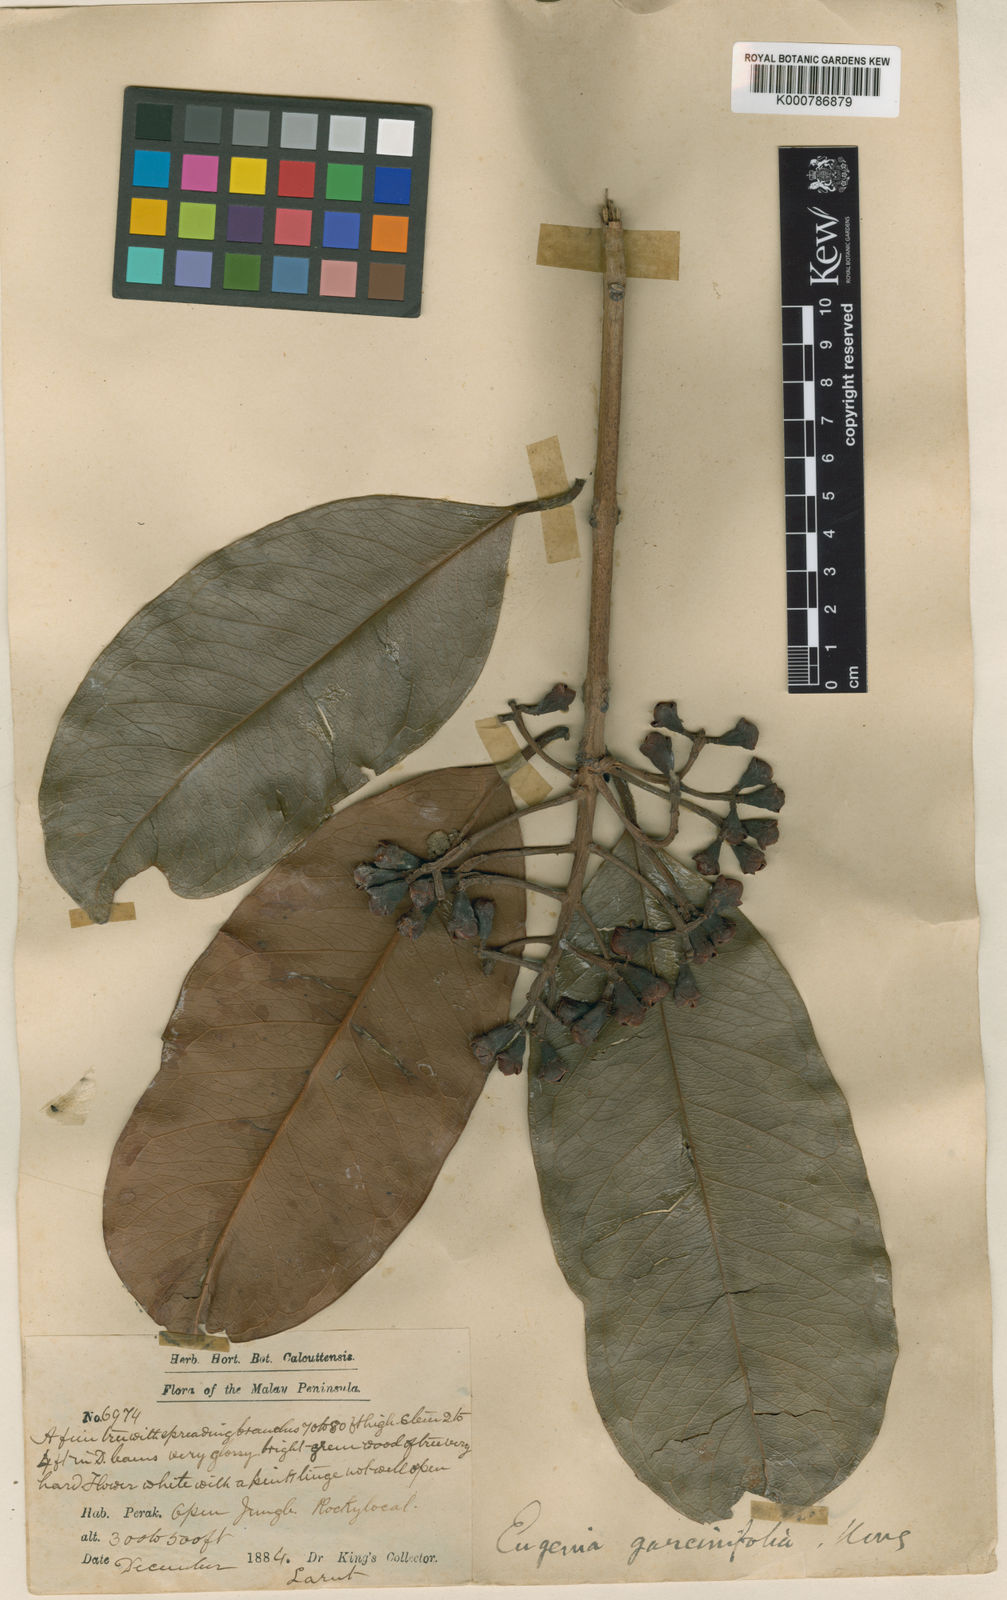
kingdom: Plantae
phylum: Tracheophyta
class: Magnoliopsida
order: Myrtales
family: Myrtaceae
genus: Syzygium
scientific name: Syzygium garciniifolium
